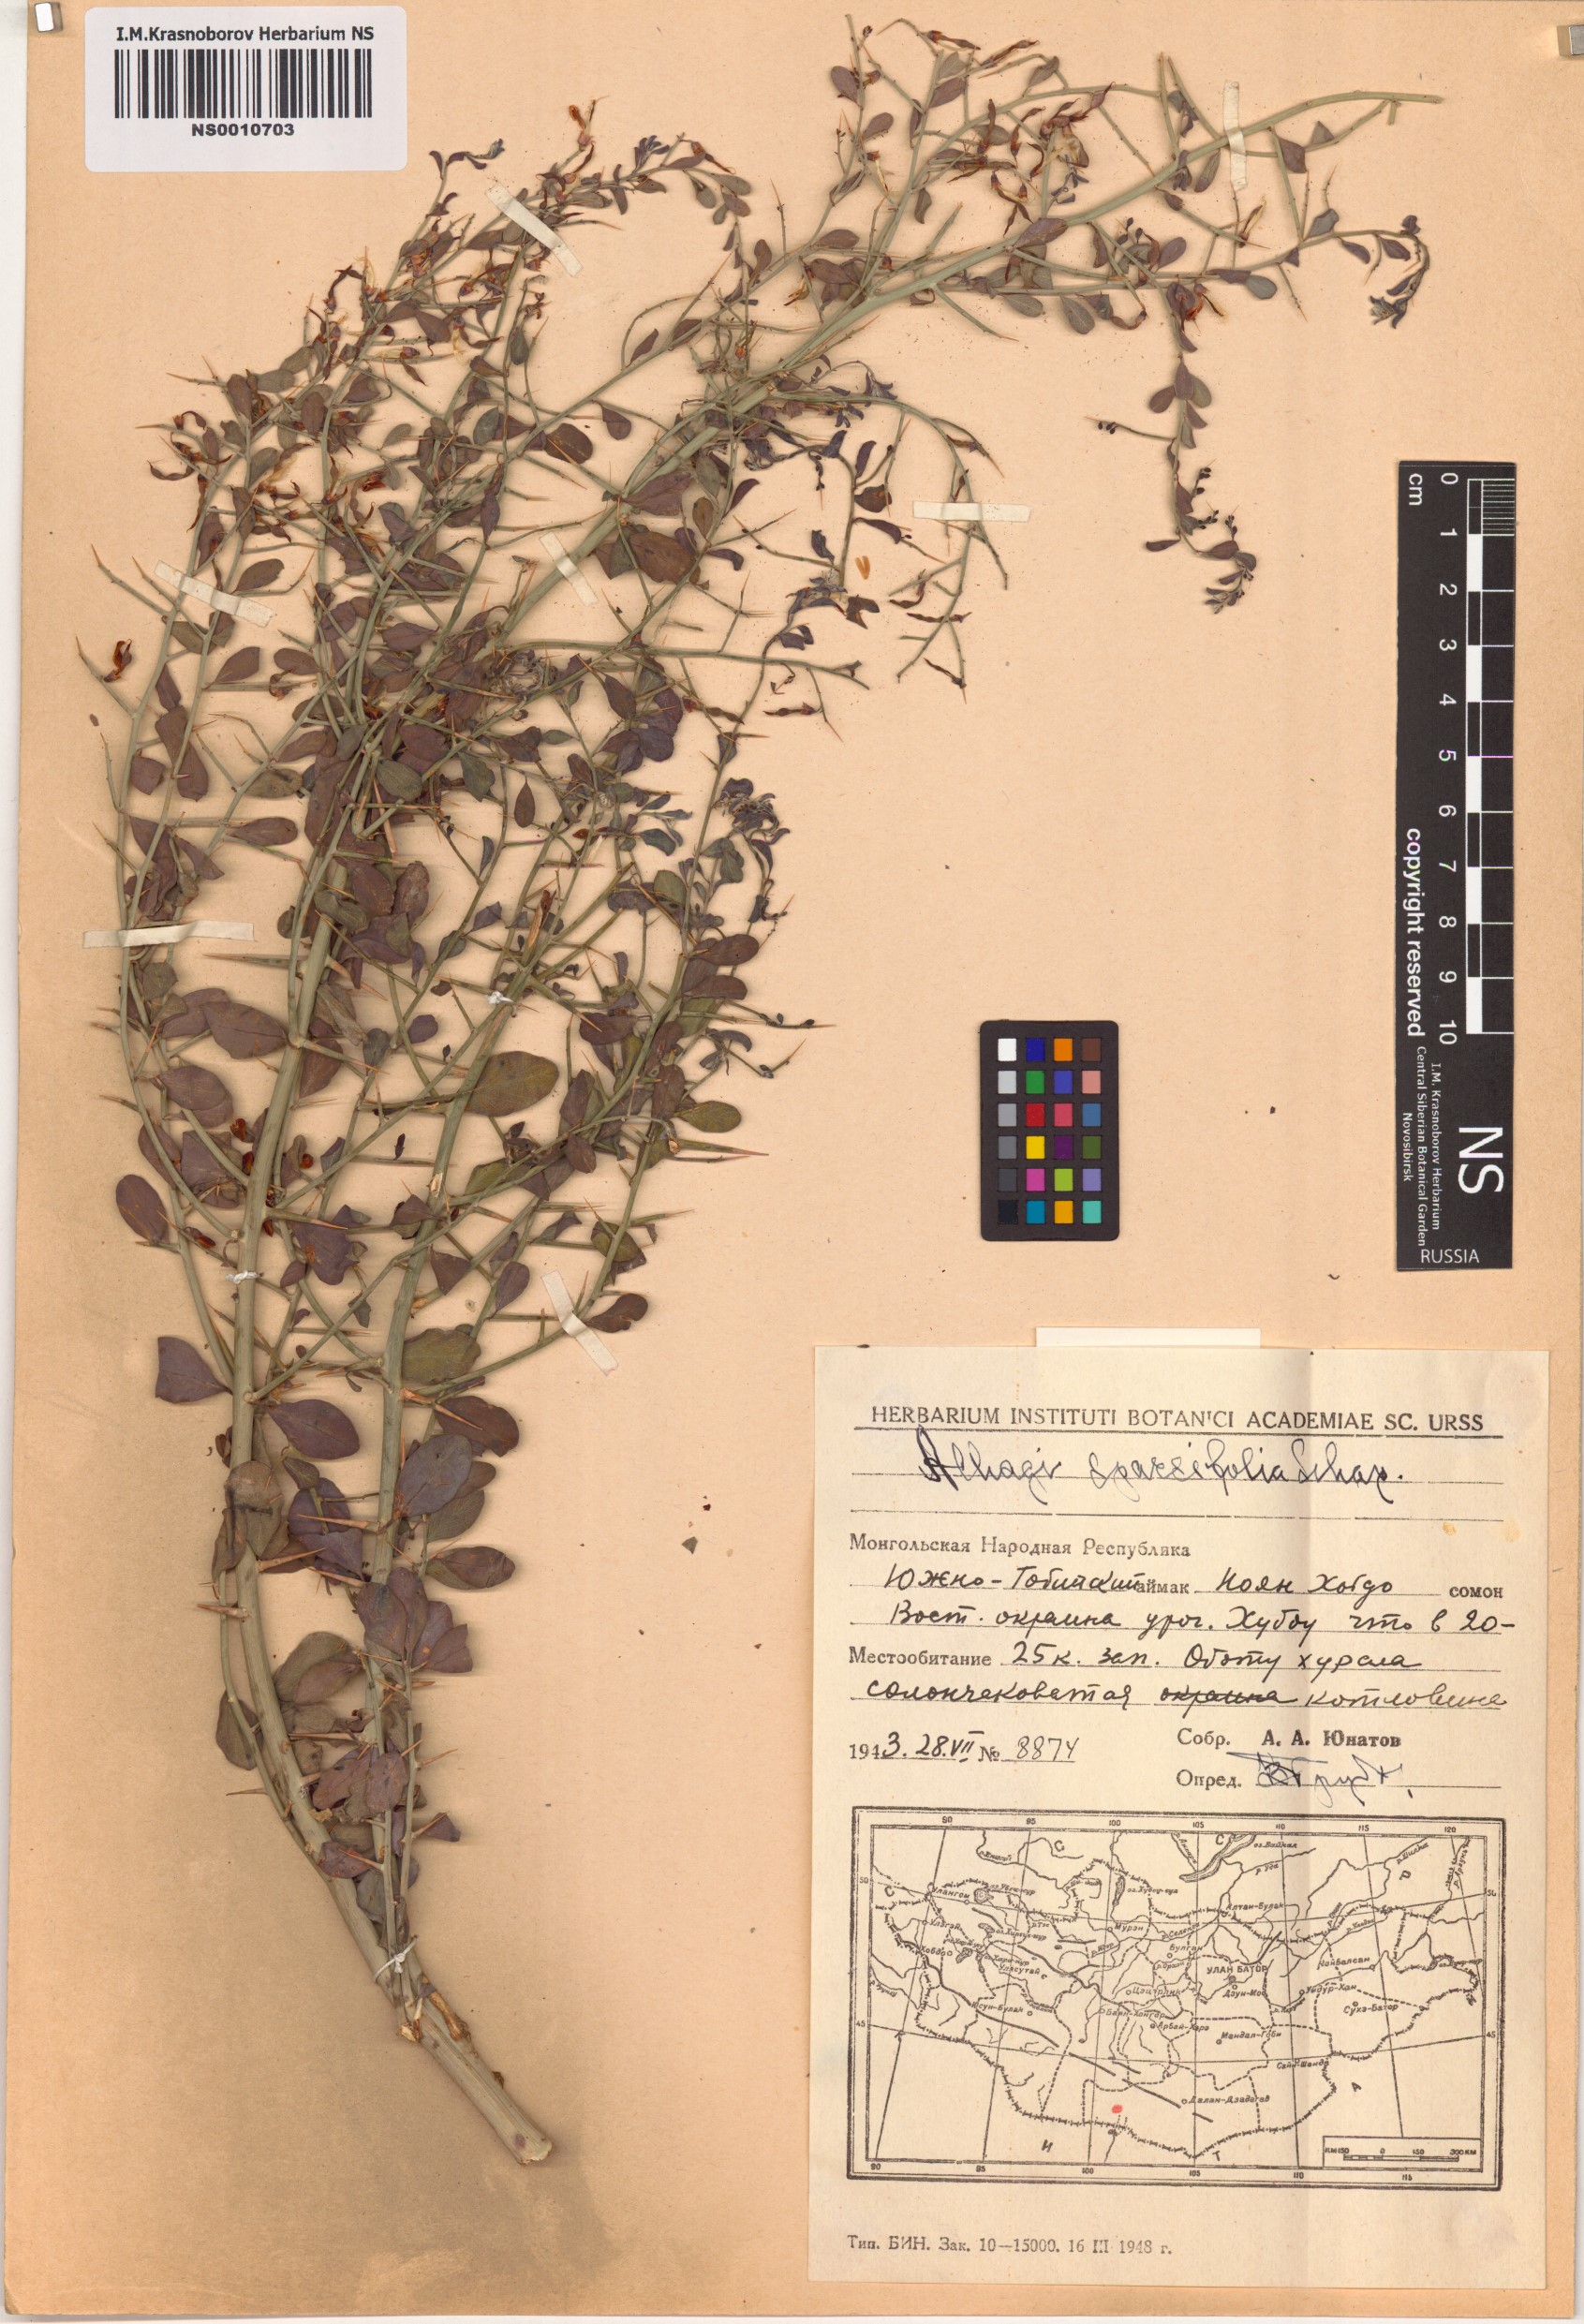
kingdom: Plantae
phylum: Tracheophyta
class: Magnoliopsida
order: Fabales
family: Fabaceae
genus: Alhagi
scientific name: Alhagi pseudalhagi
